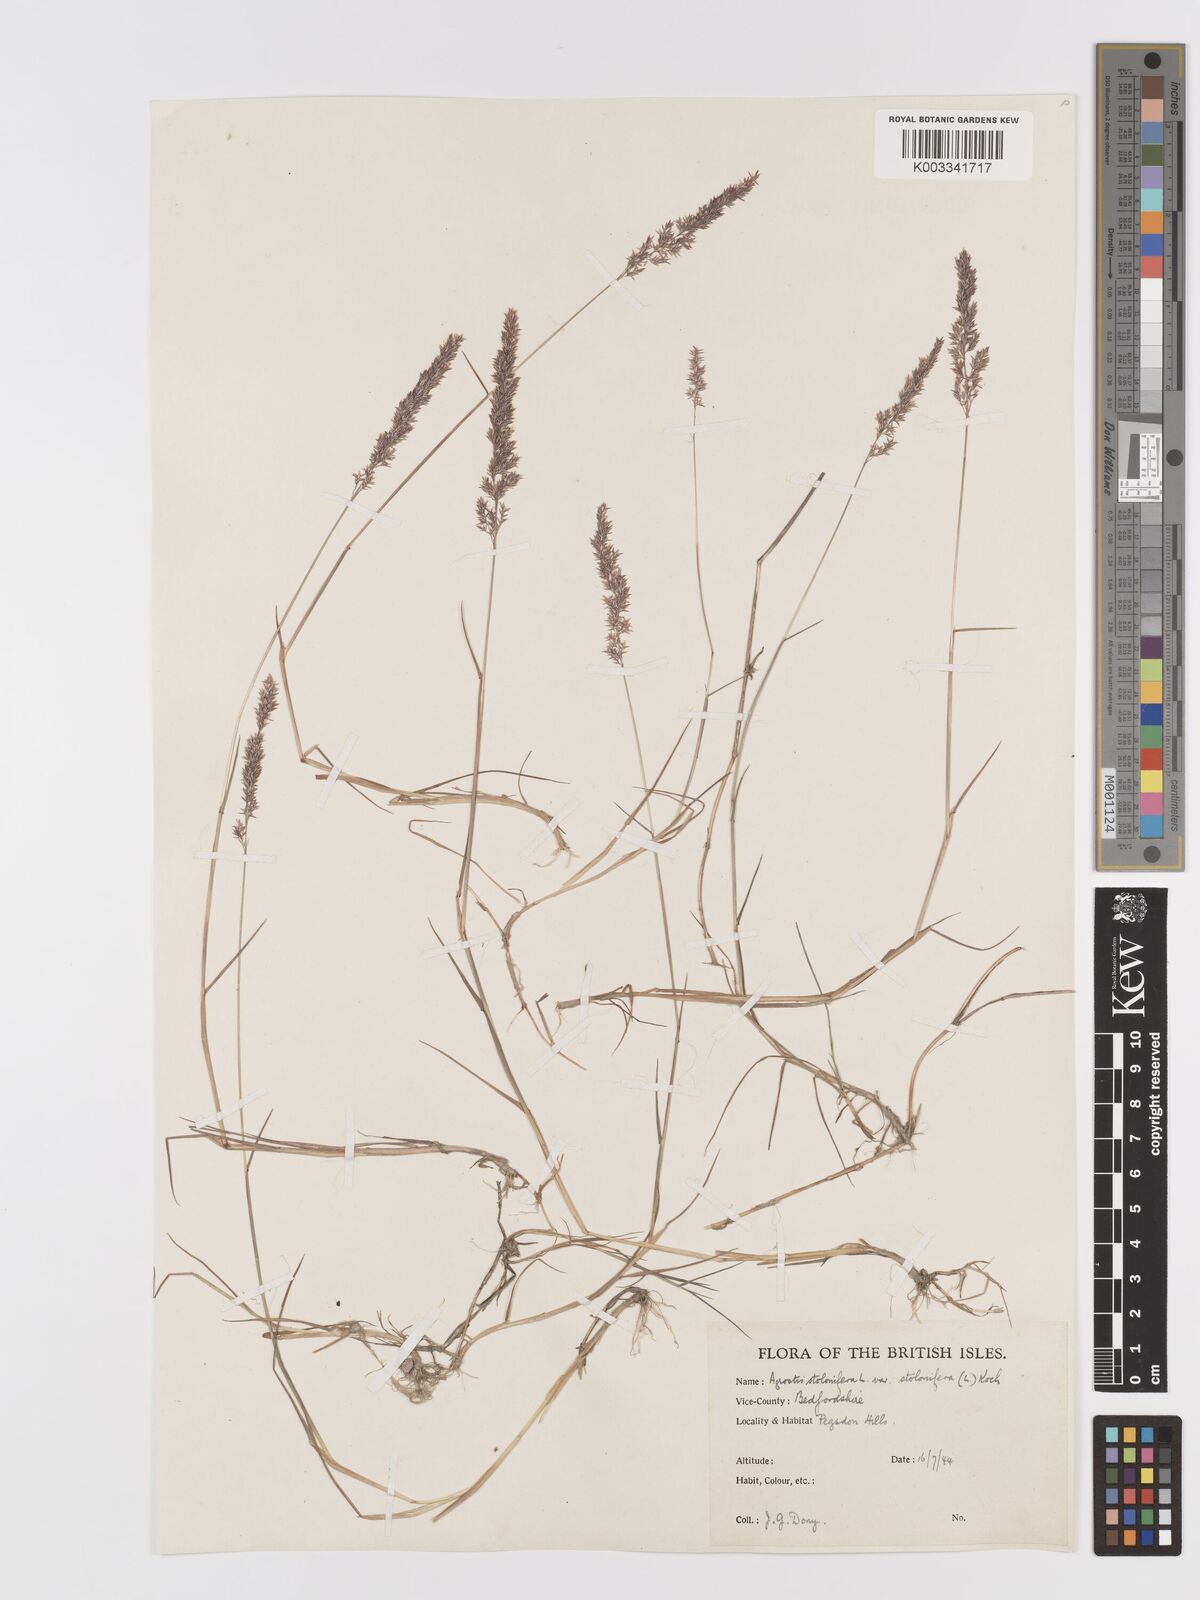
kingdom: Plantae
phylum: Tracheophyta
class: Liliopsida
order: Poales
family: Poaceae
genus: Agrostis
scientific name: Agrostis stolonifera
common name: Creeping bentgrass
